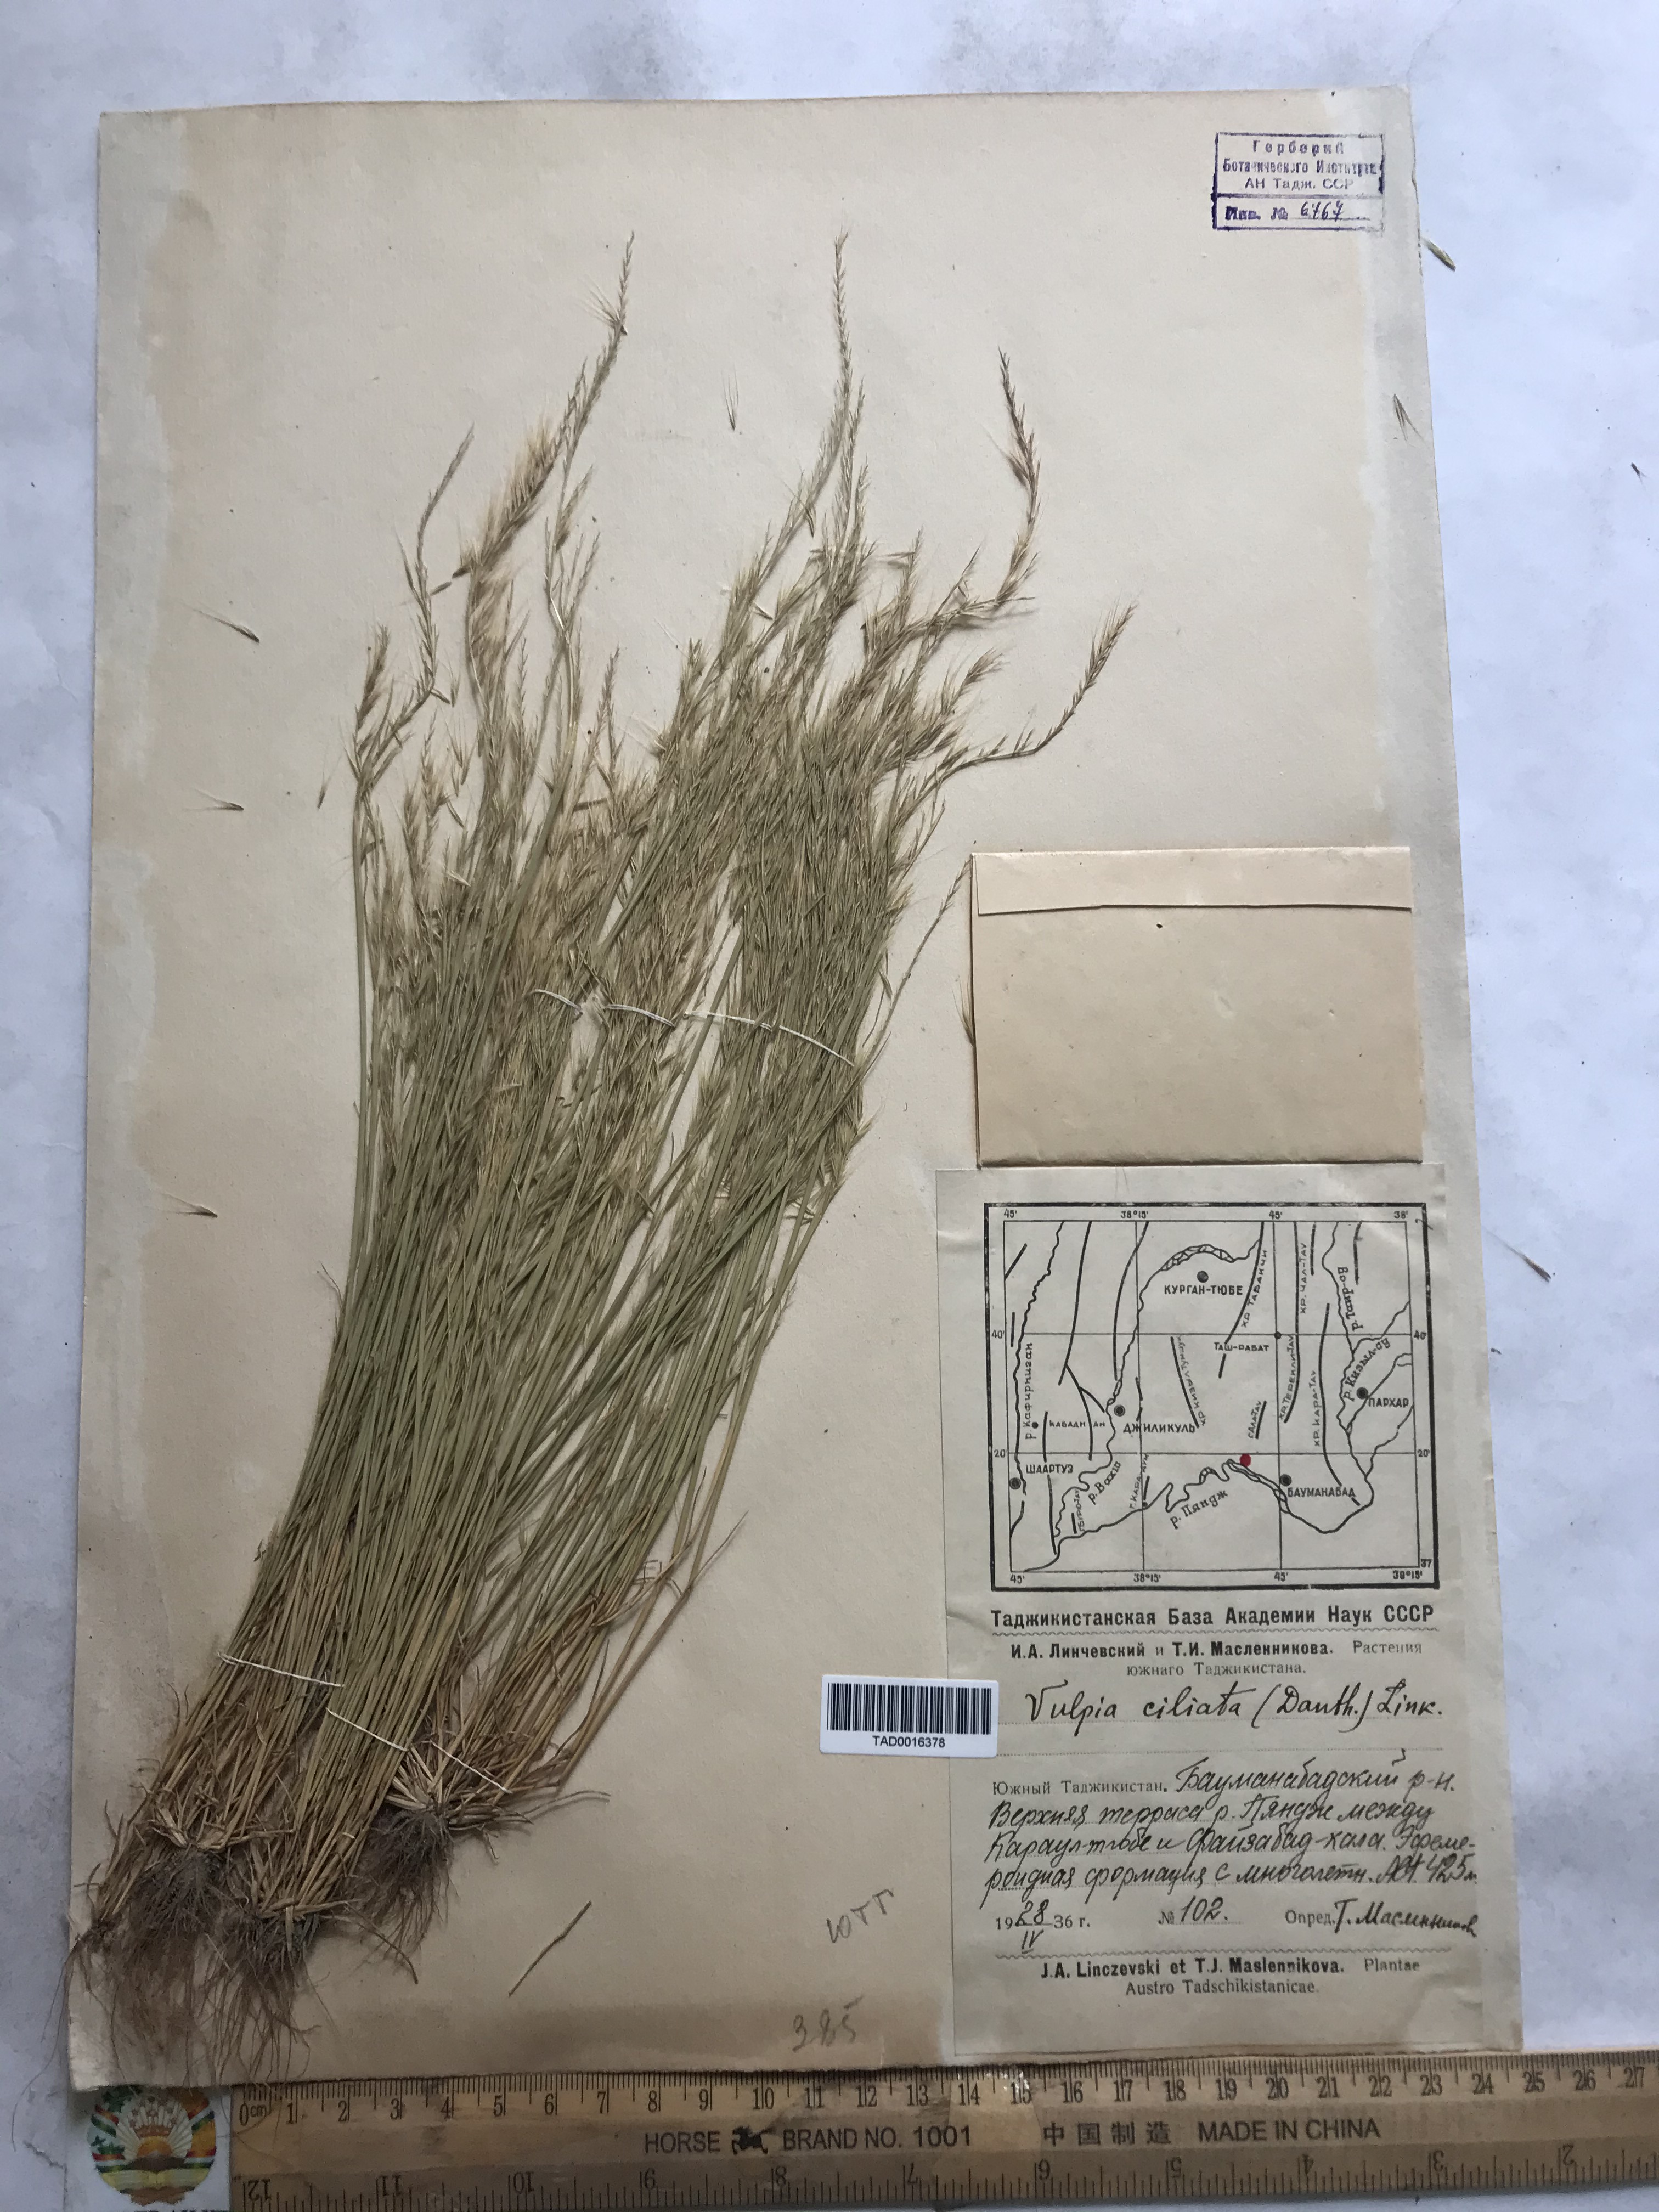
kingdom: Plantae
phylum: Tracheophyta
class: Liliopsida
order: Poales
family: Poaceae
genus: Festuca
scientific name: Festuca ambigua
